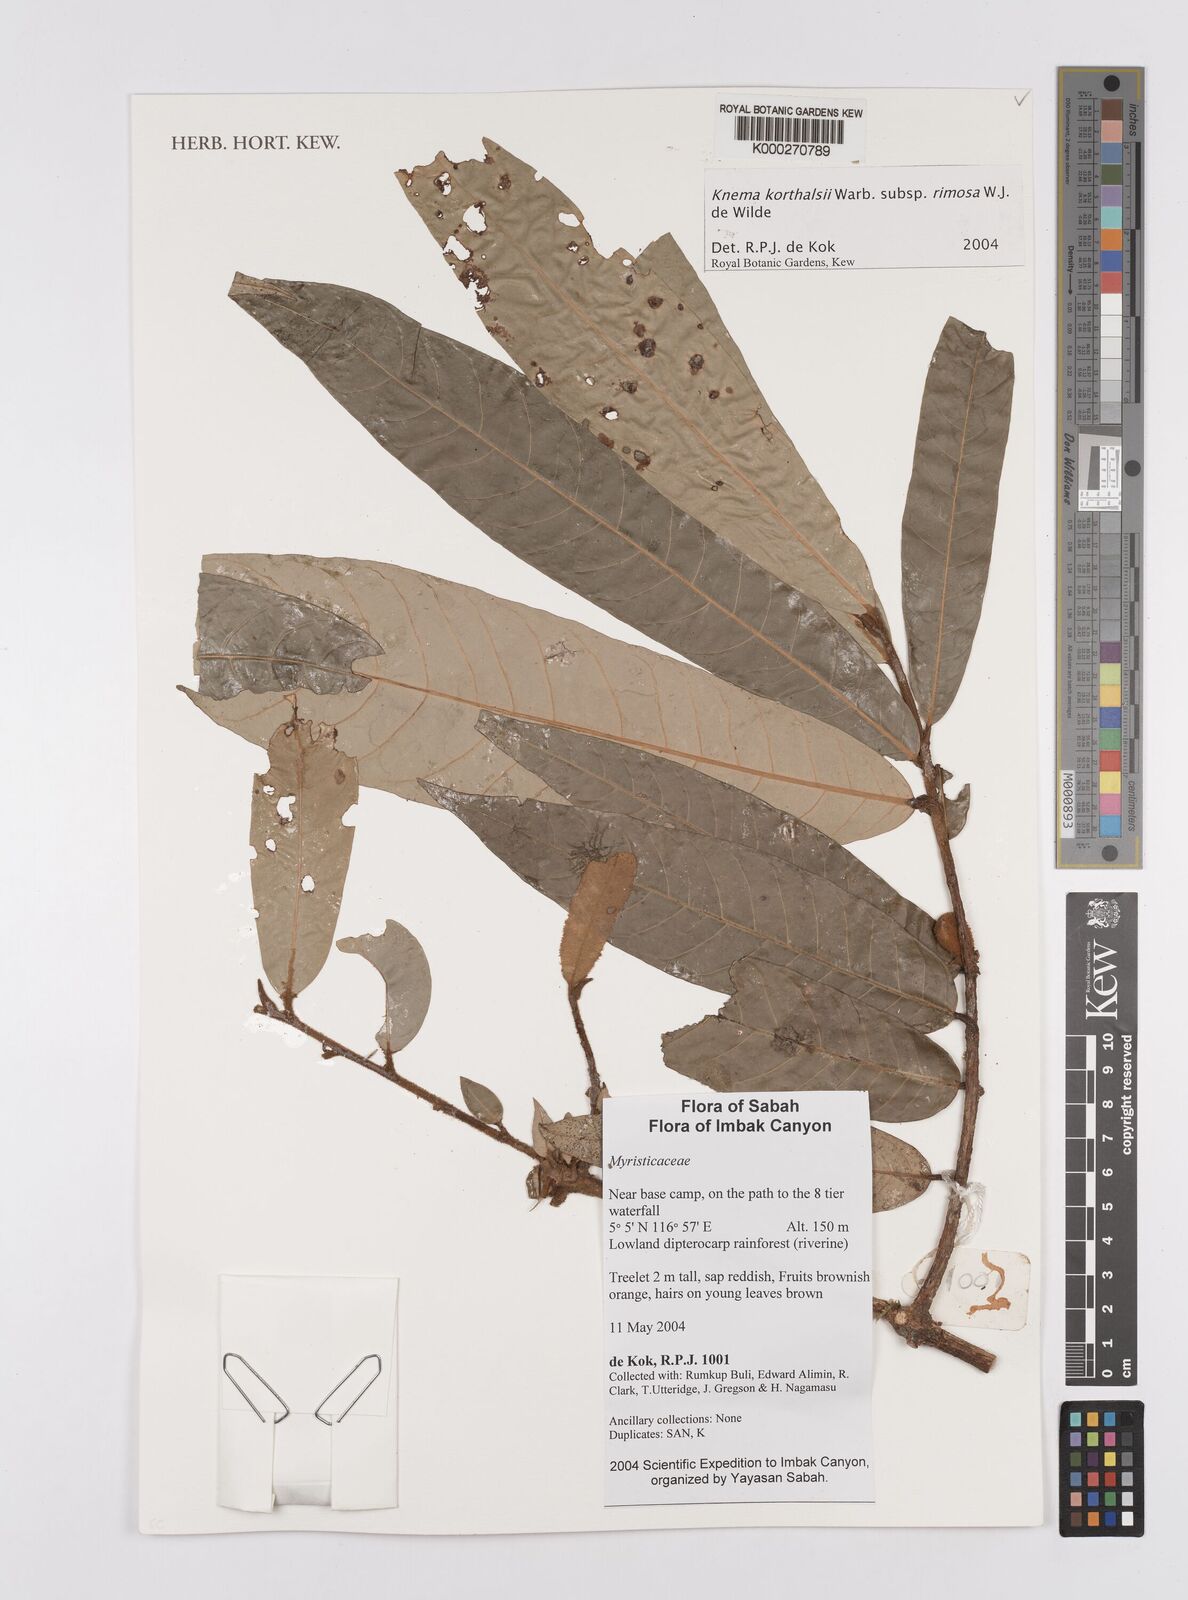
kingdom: Plantae
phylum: Tracheophyta
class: Magnoliopsida
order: Magnoliales
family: Myristicaceae
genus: Knema
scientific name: Knema korthalsii
